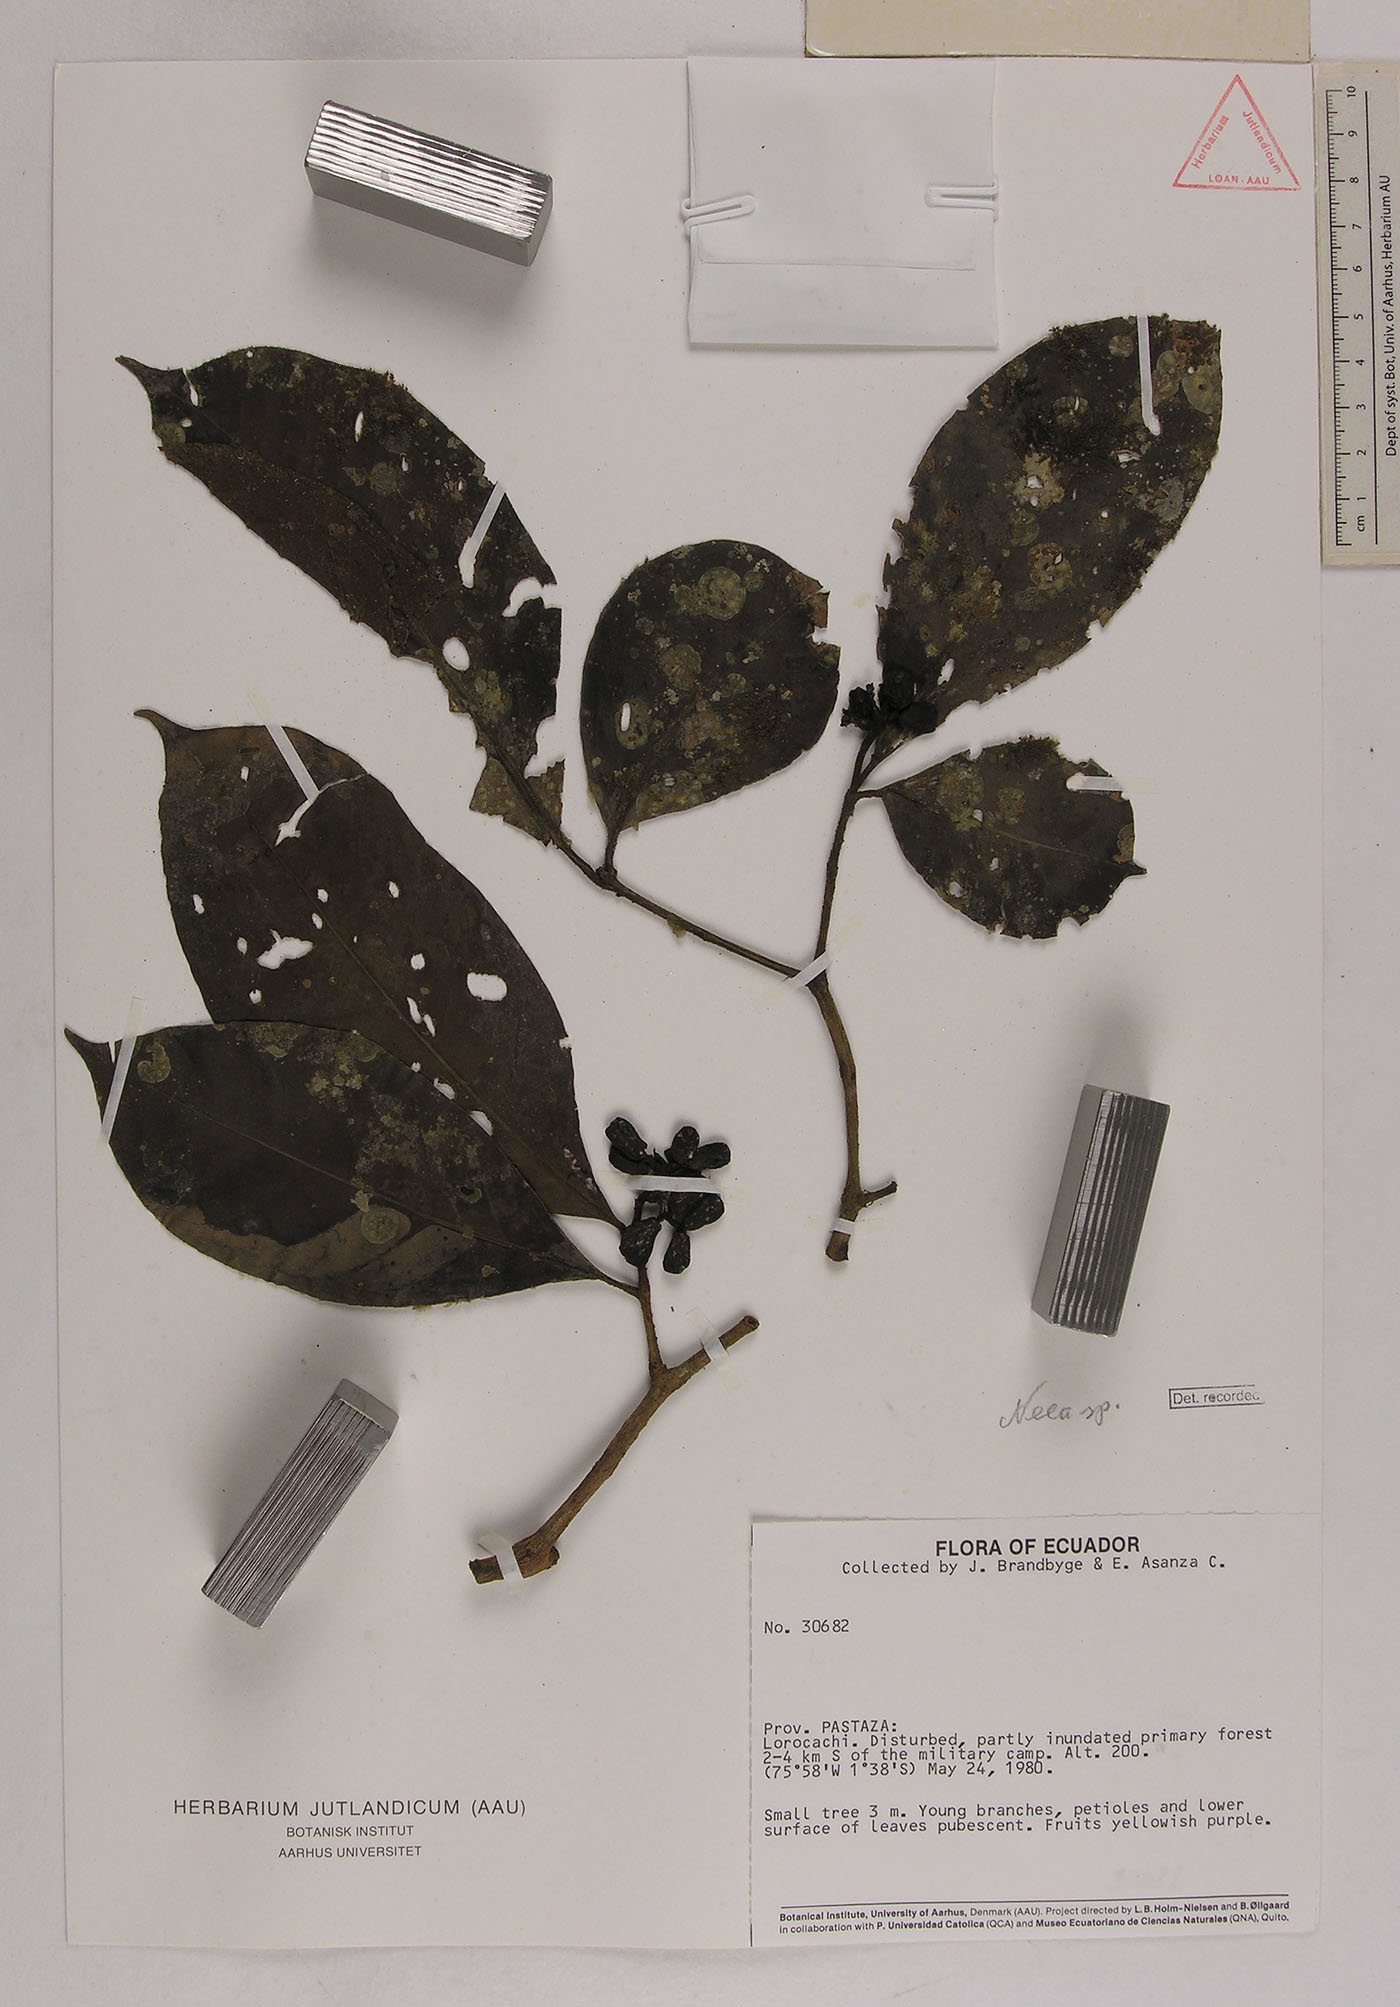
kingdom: Plantae
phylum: Tracheophyta
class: Magnoliopsida
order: Caryophyllales
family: Nyctaginaceae
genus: Neea
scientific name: Neea
